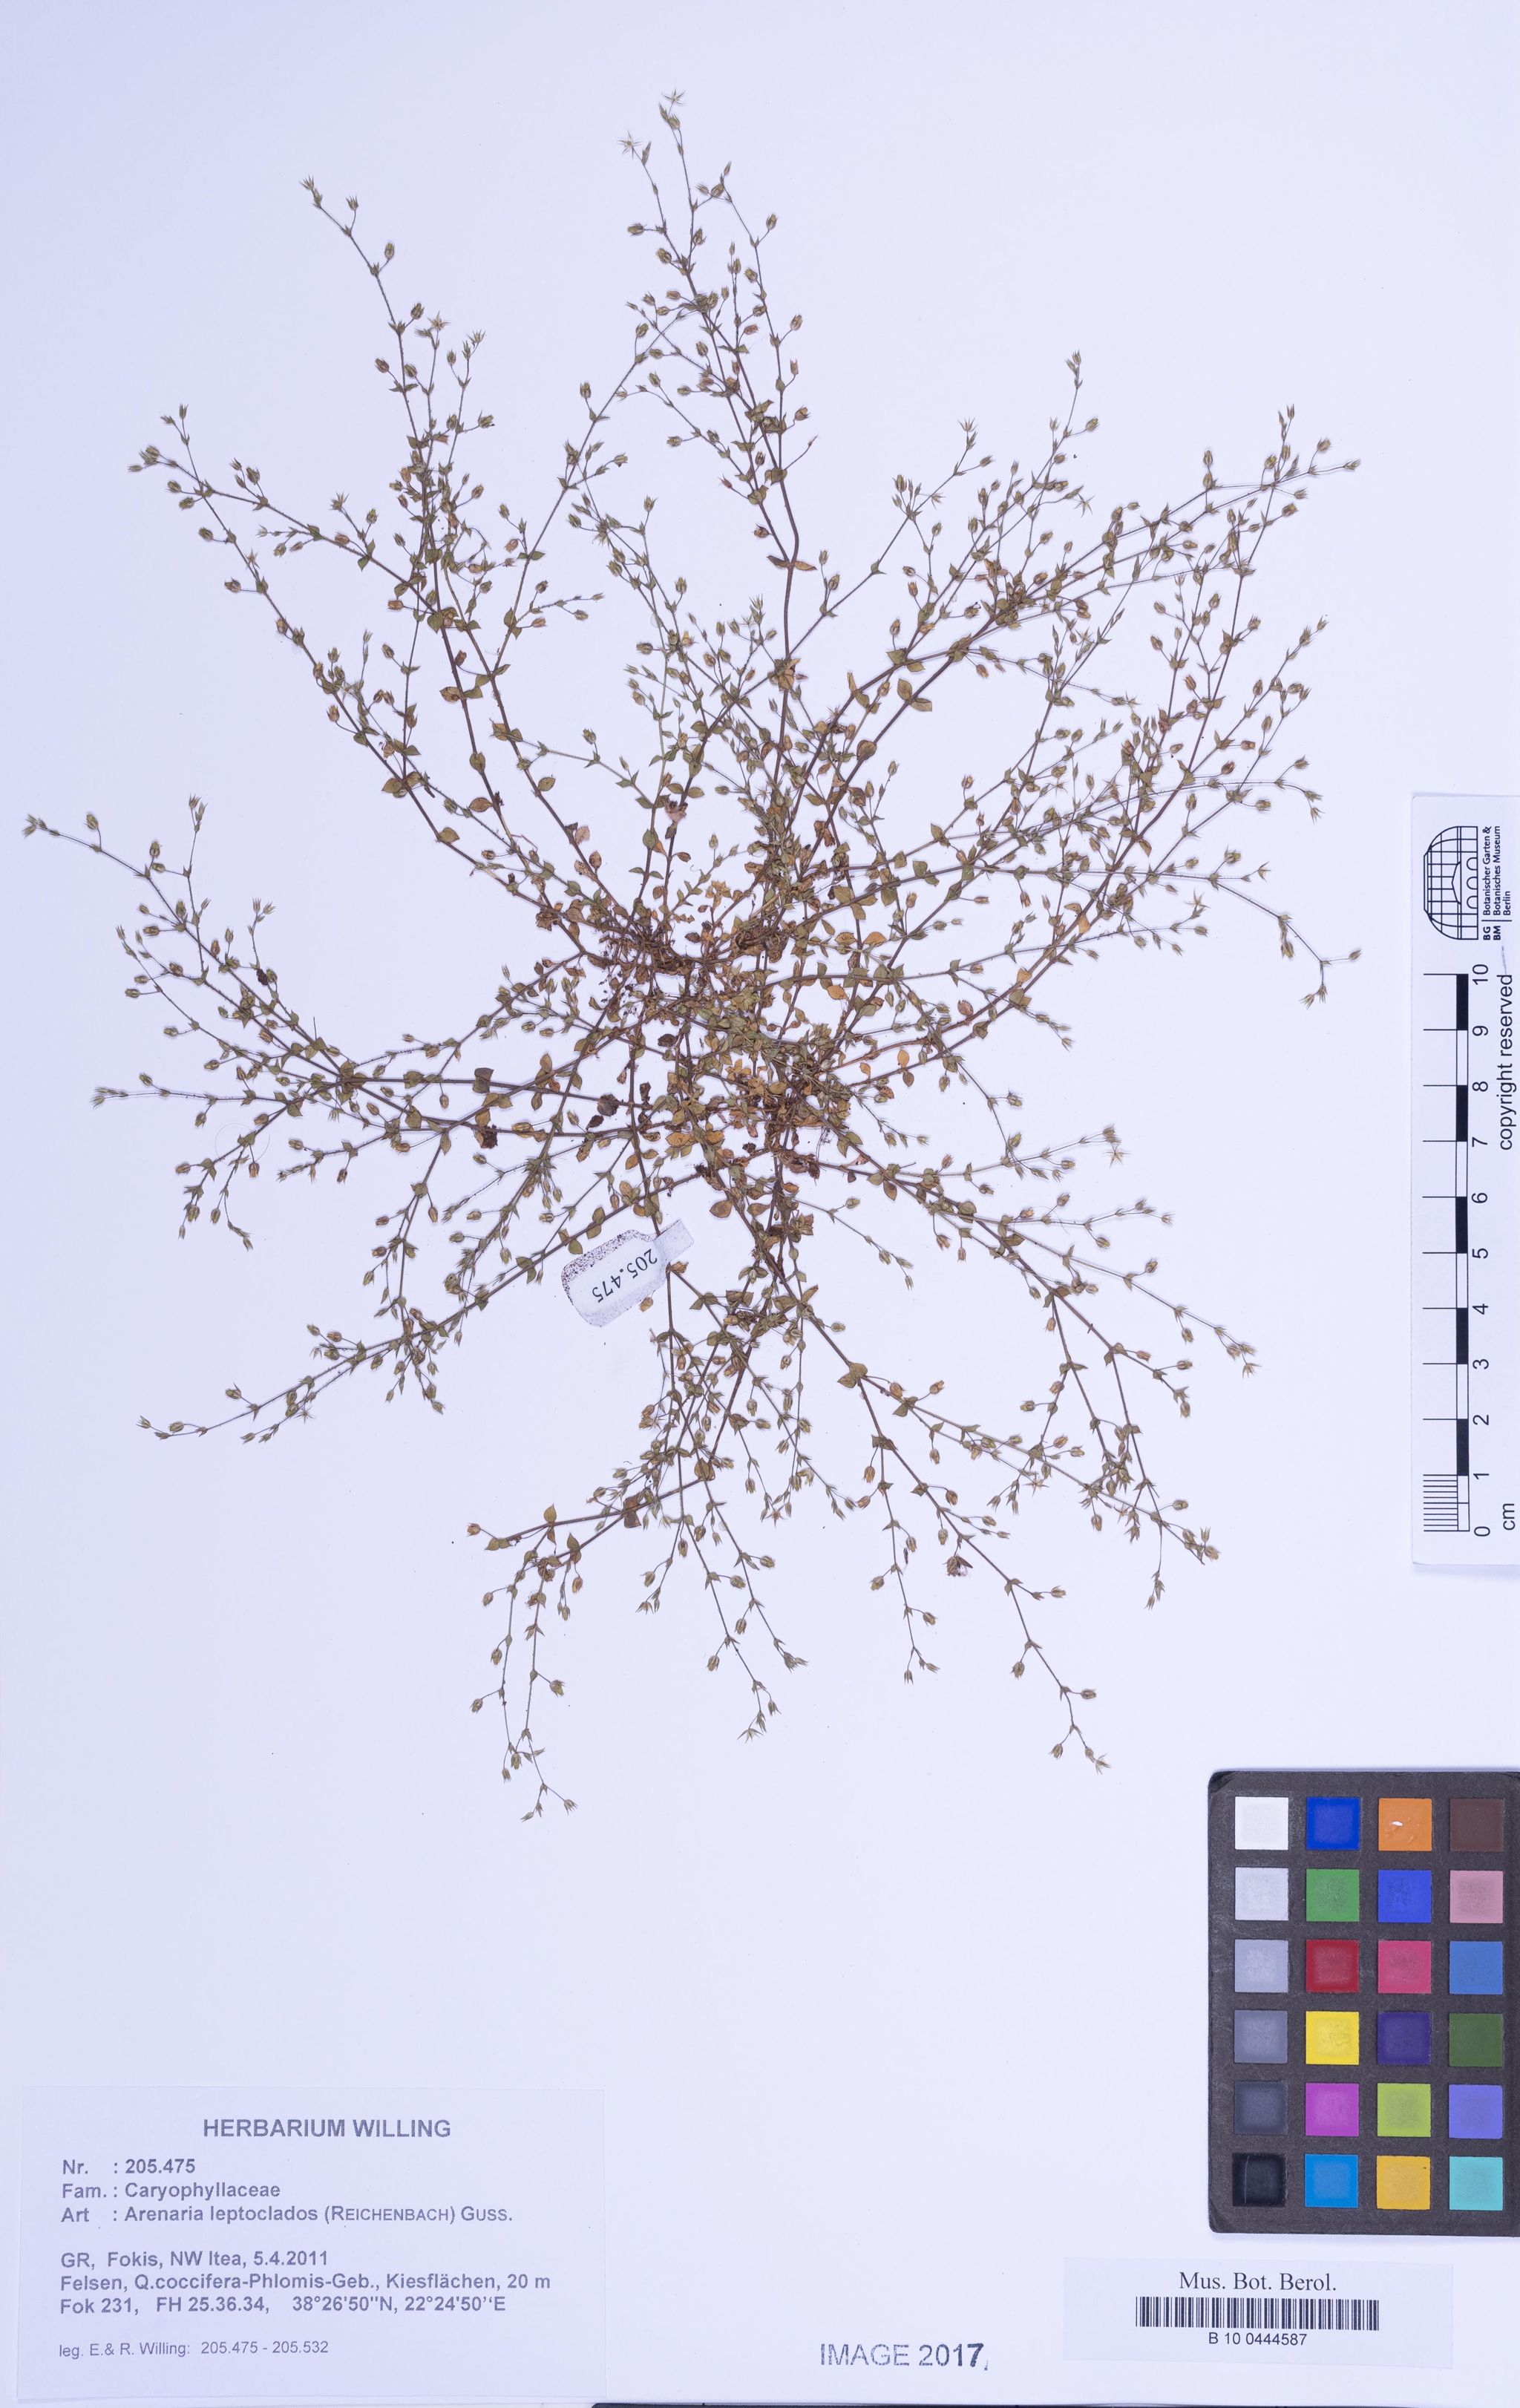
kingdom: Plantae
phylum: Tracheophyta
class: Magnoliopsida
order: Caryophyllales
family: Caryophyllaceae
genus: Arenaria
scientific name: Arenaria leptoclados
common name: Thyme-leaved sandwort
